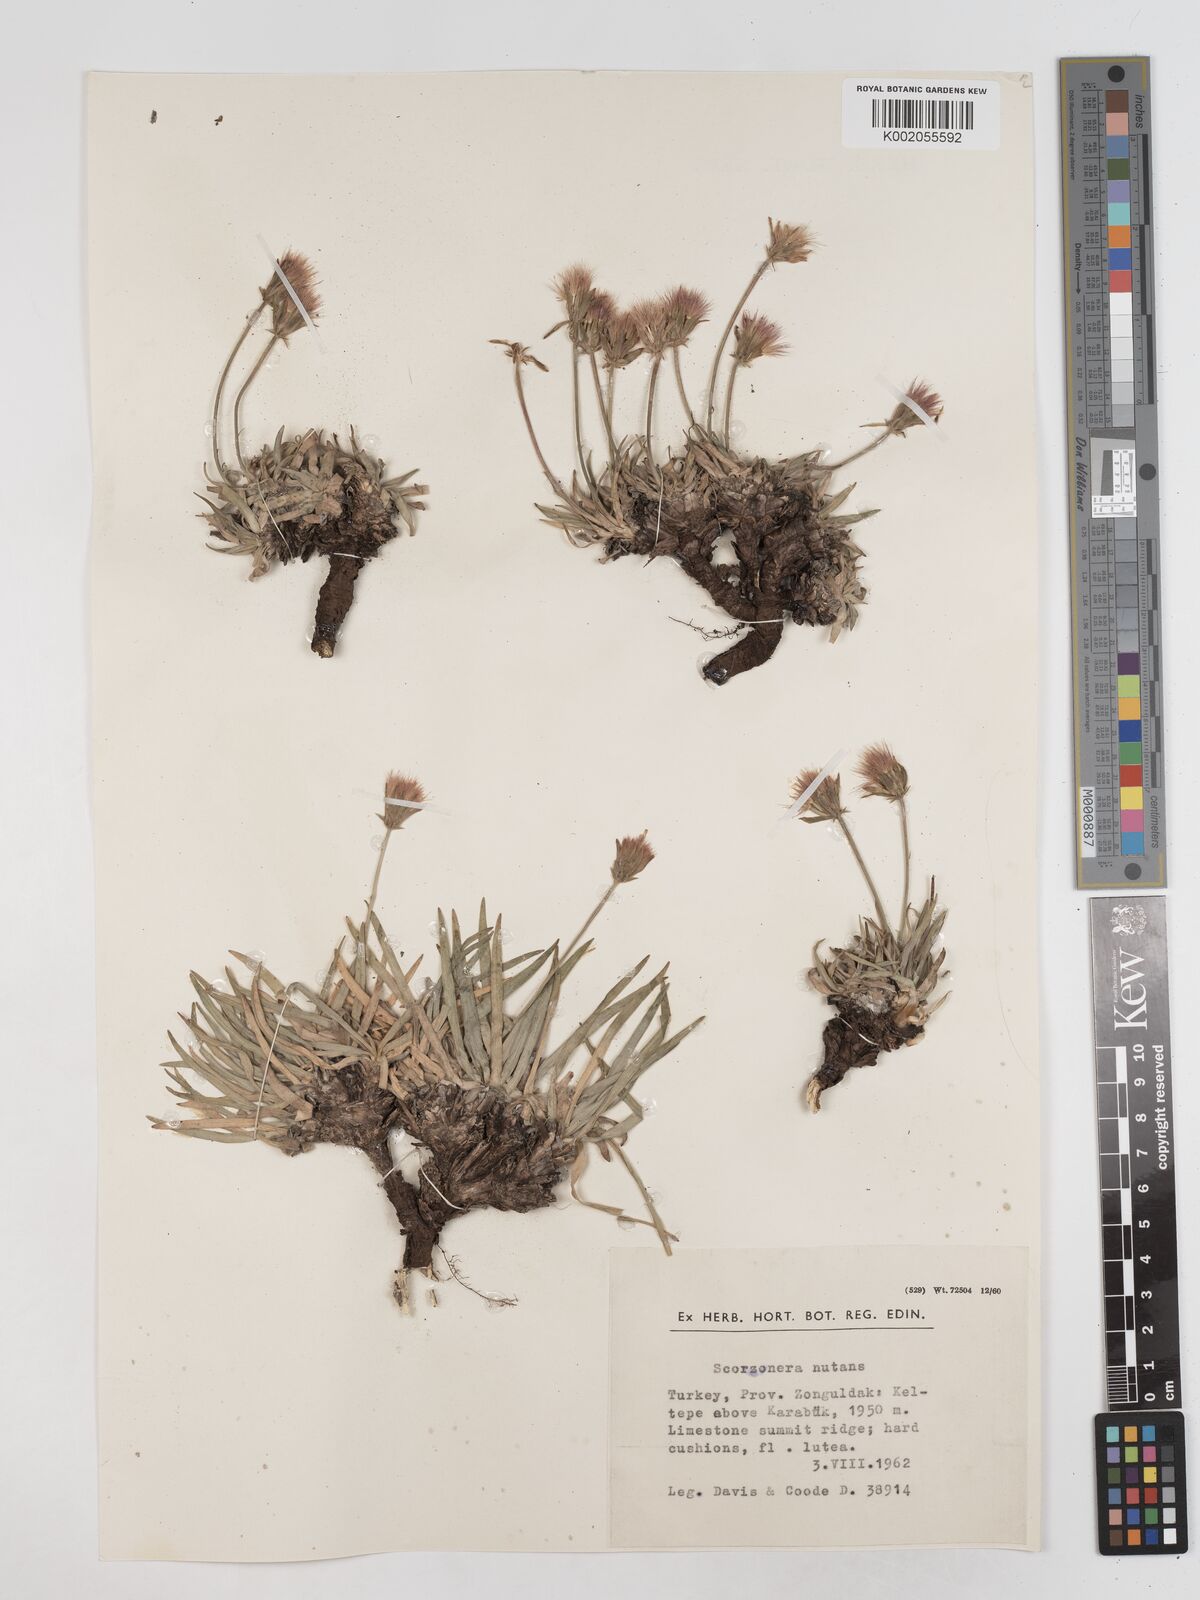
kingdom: Plantae
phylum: Tracheophyta
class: Magnoliopsida
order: Asterales
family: Asteraceae
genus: Scorzonera
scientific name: Scorzonera
